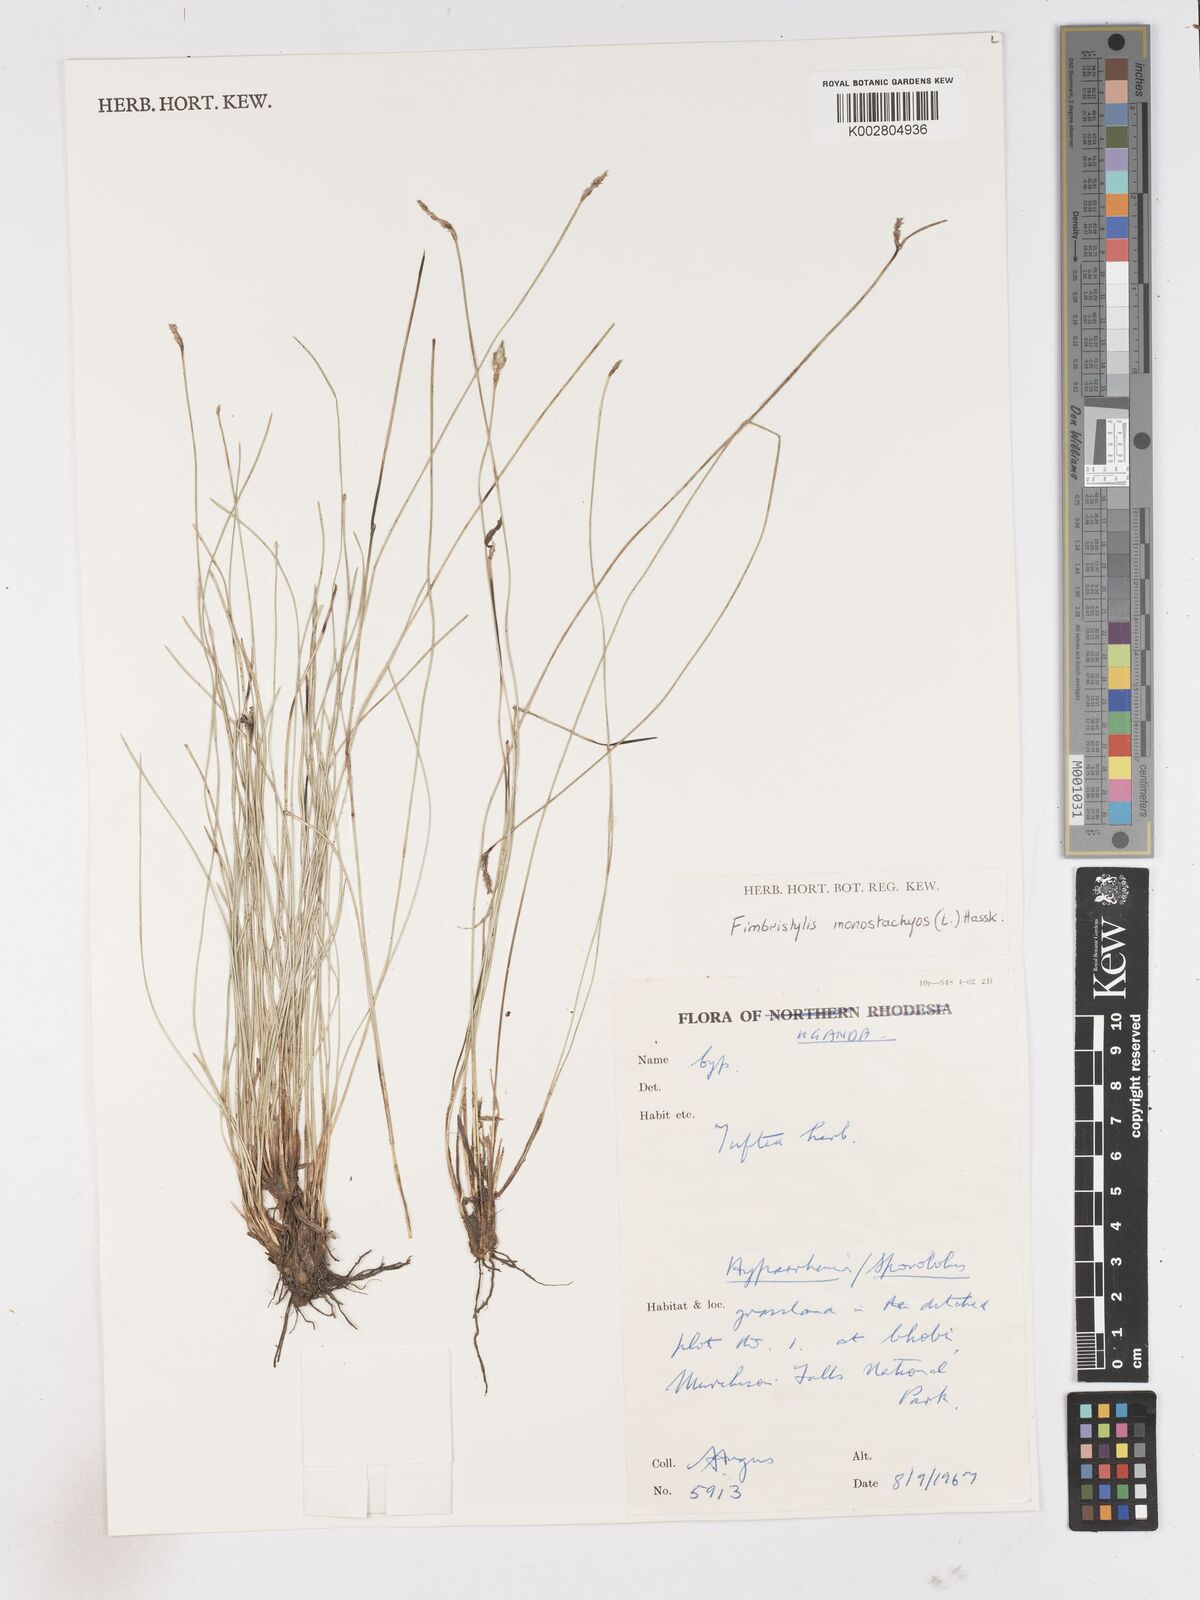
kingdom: Plantae
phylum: Tracheophyta
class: Liliopsida
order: Poales
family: Cyperaceae
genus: Abildgaardia
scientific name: Abildgaardia ovata
